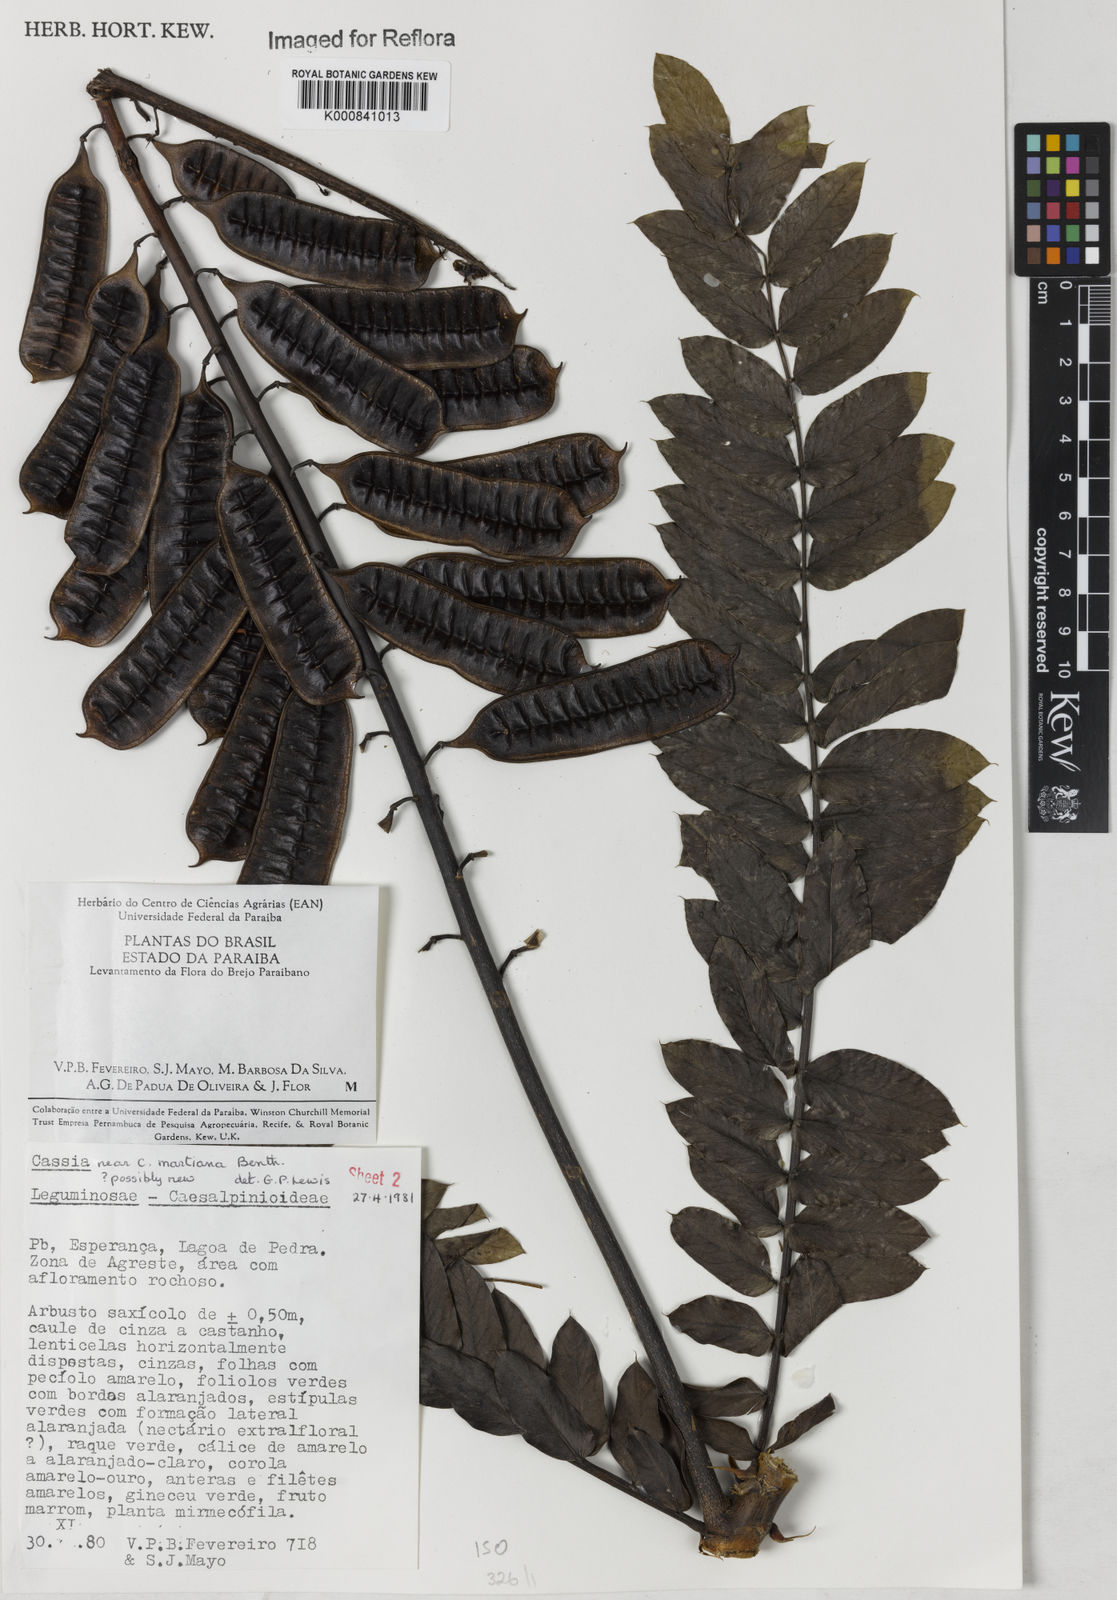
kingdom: Plantae
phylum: Tracheophyta
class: Magnoliopsida
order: Fabales
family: Fabaceae
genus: Senna
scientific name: Senna martiana
